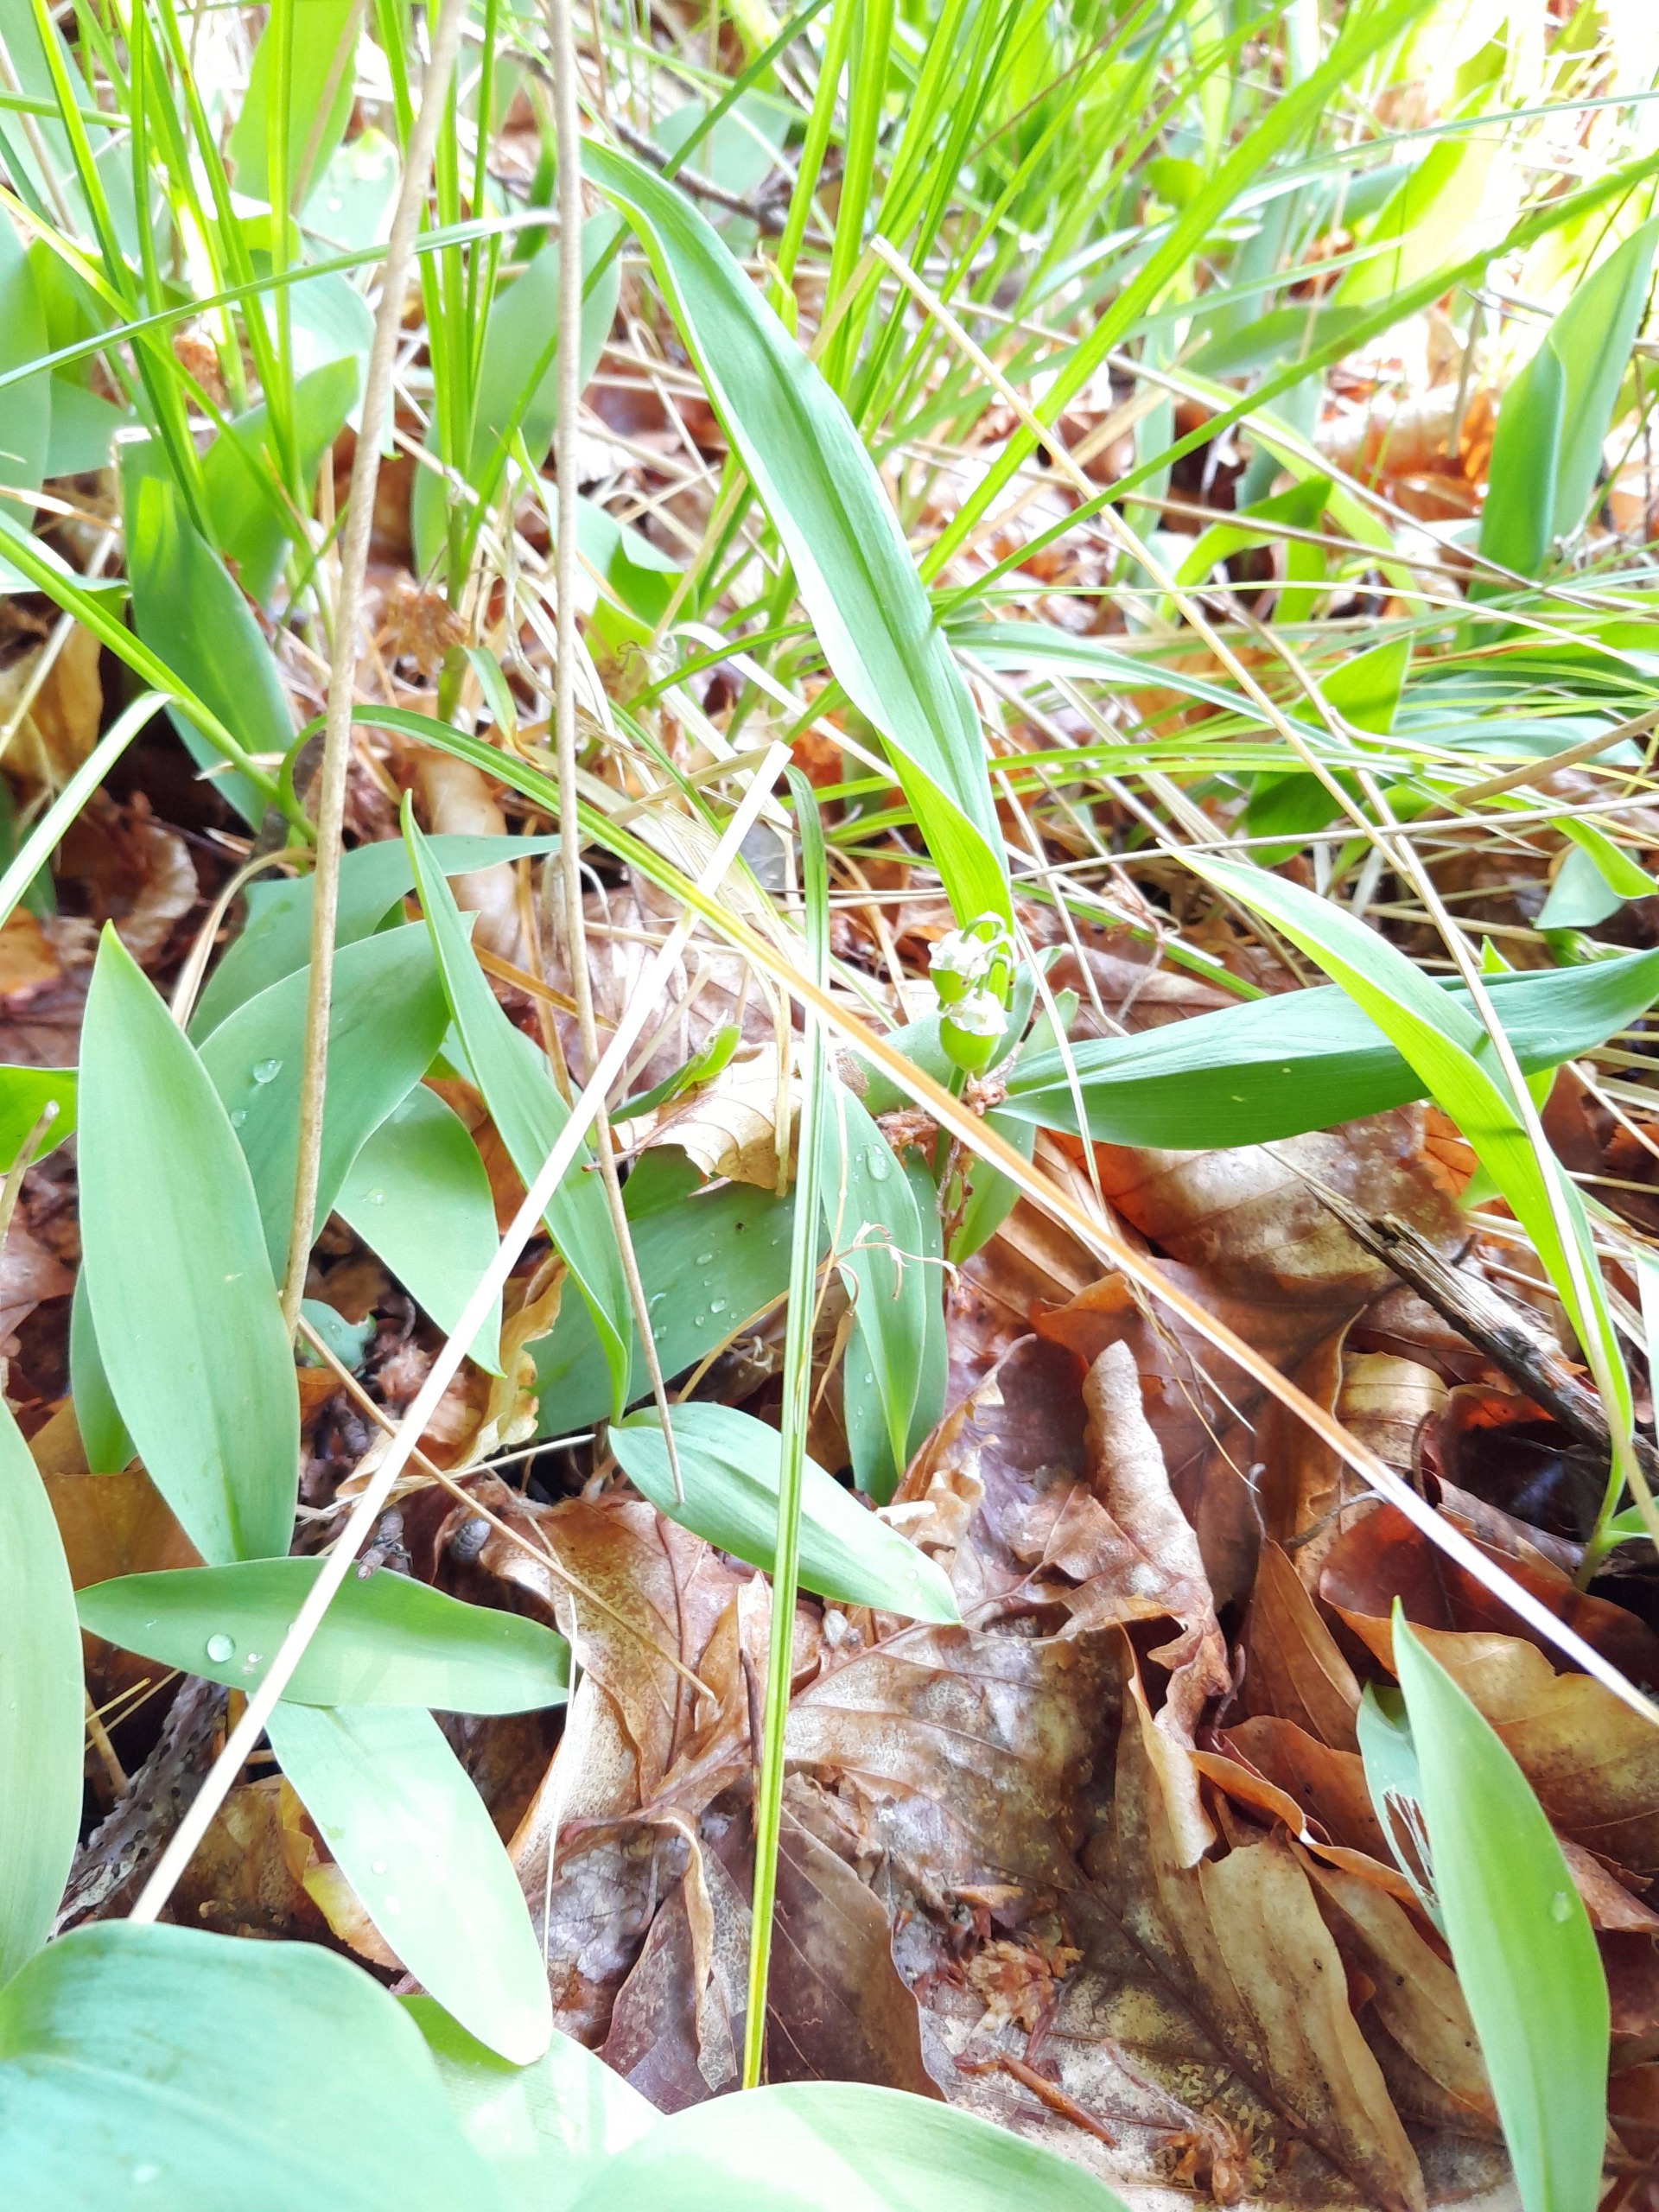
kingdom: Plantae
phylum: Tracheophyta
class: Liliopsida
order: Asparagales
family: Asparagaceae
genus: Convallaria
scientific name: Convallaria majalis
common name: Liljekonval
